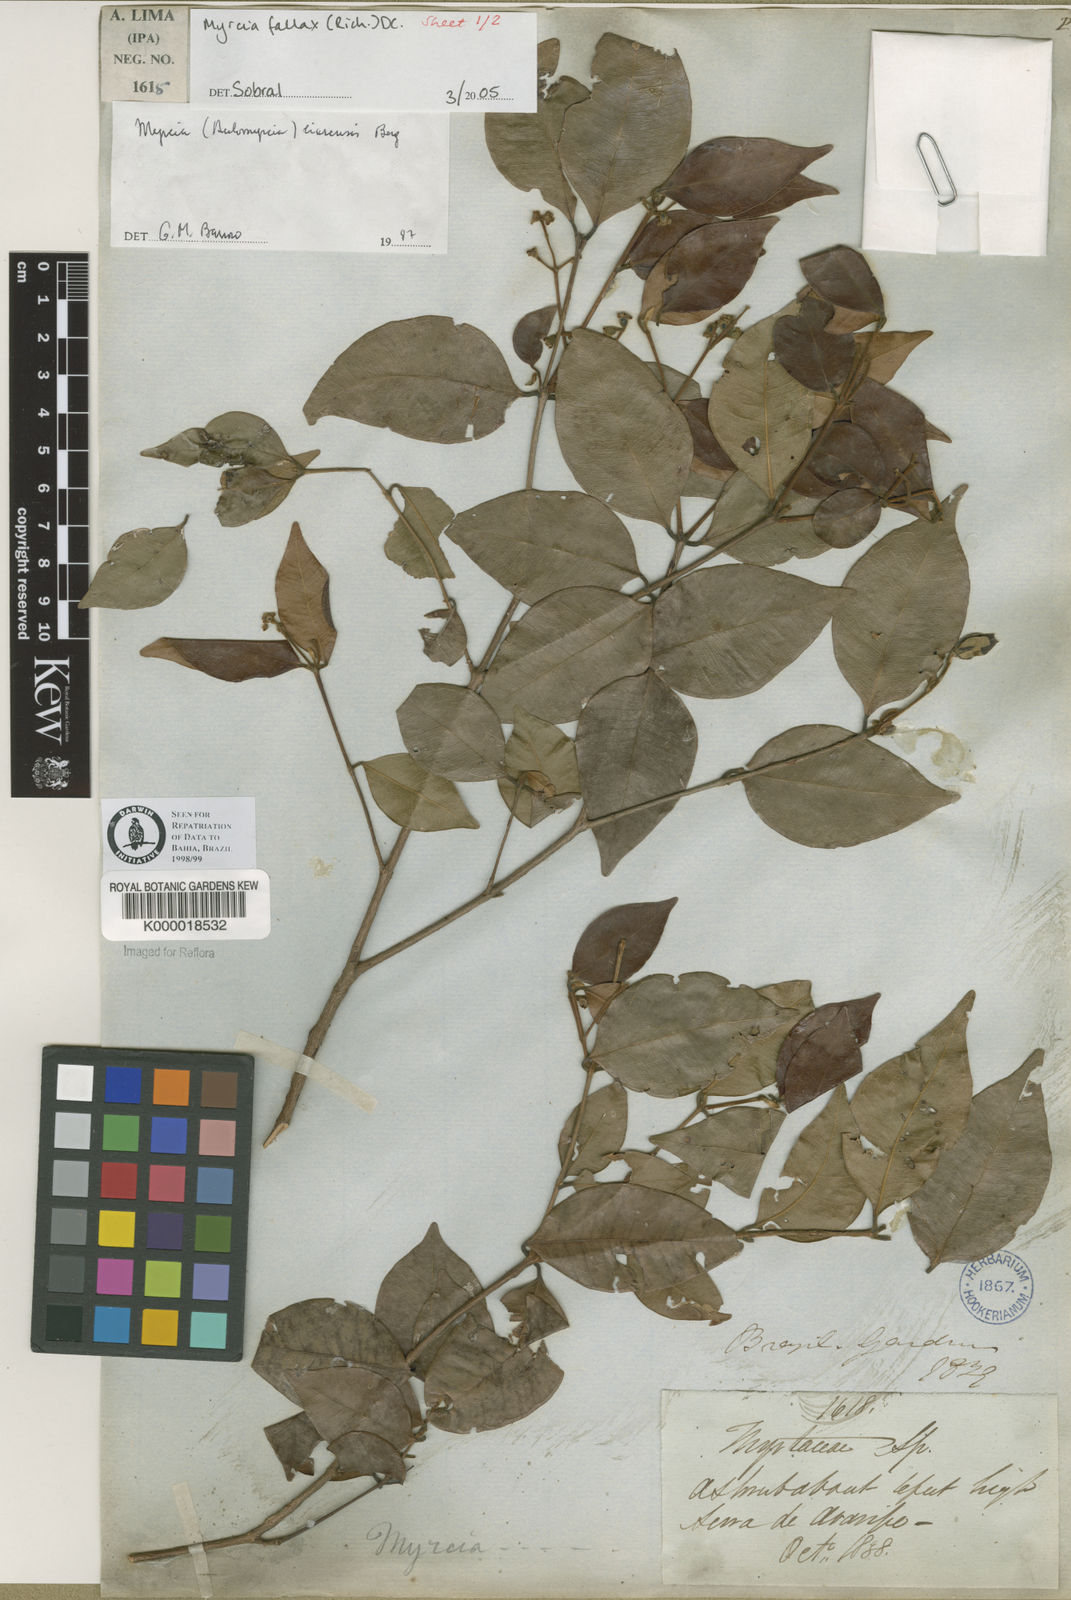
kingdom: Plantae
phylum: Tracheophyta
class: Magnoliopsida
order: Myrtales
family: Myrtaceae
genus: Myrcia
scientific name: Myrcia splendens
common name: Surinam cherry
